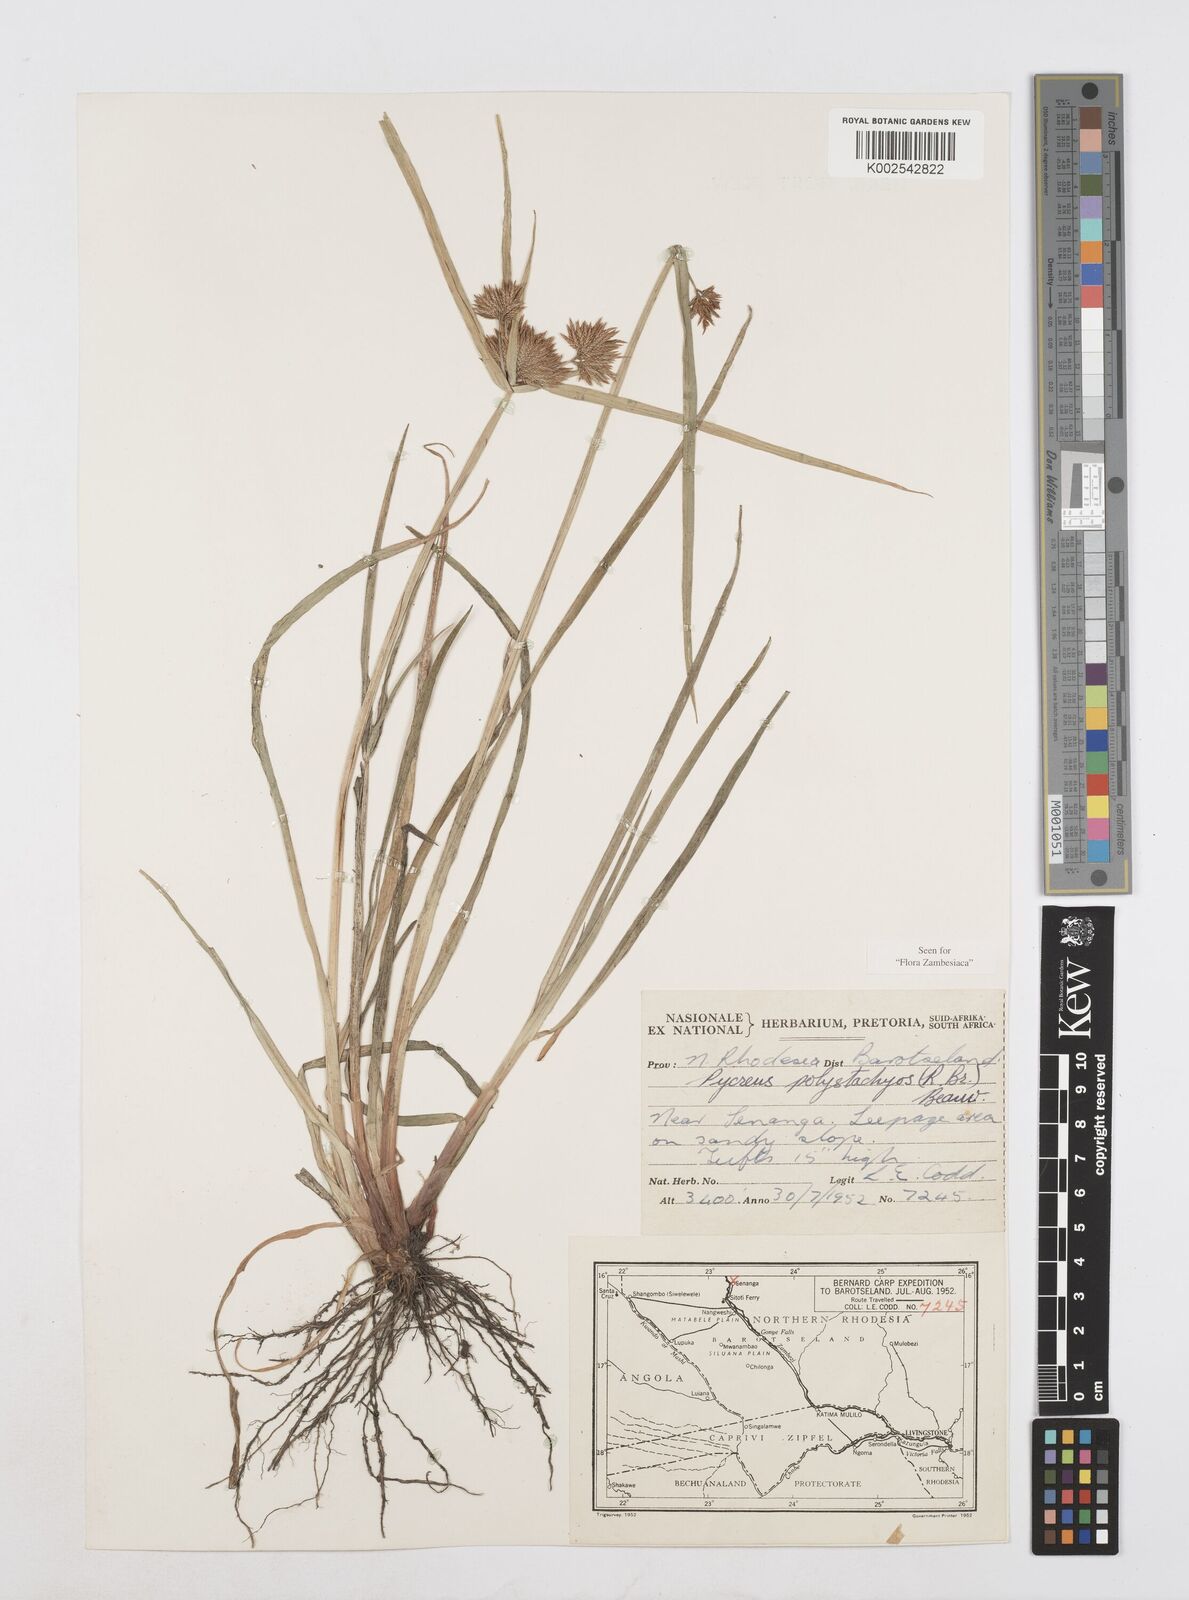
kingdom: Plantae
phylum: Tracheophyta
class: Liliopsida
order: Poales
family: Cyperaceae
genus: Cyperus
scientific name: Cyperus polystachyos
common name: Bunchy flat sedge
